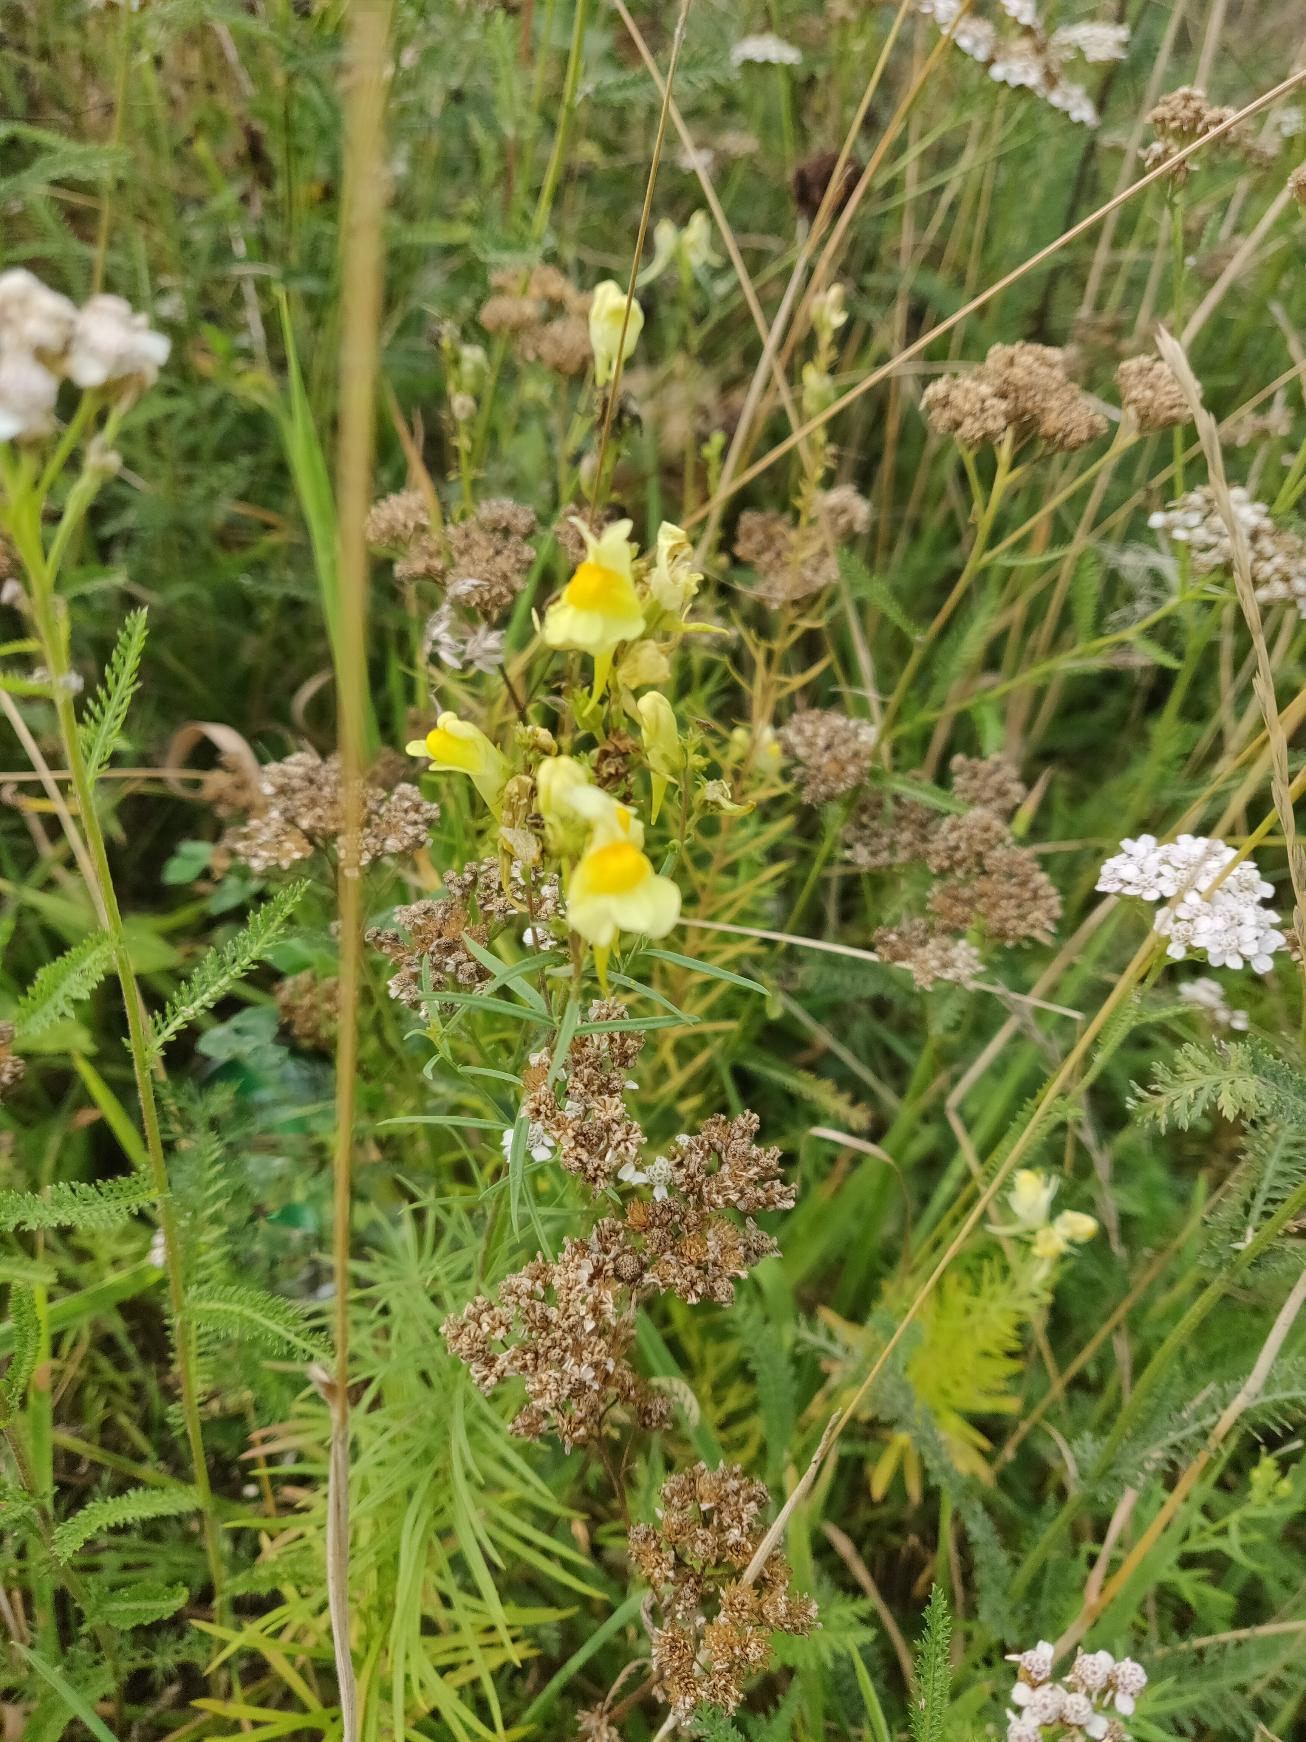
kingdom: Plantae
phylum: Tracheophyta
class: Magnoliopsida
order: Lamiales
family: Plantaginaceae
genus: Linaria
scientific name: Linaria vulgaris
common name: Almindelig torskemund
